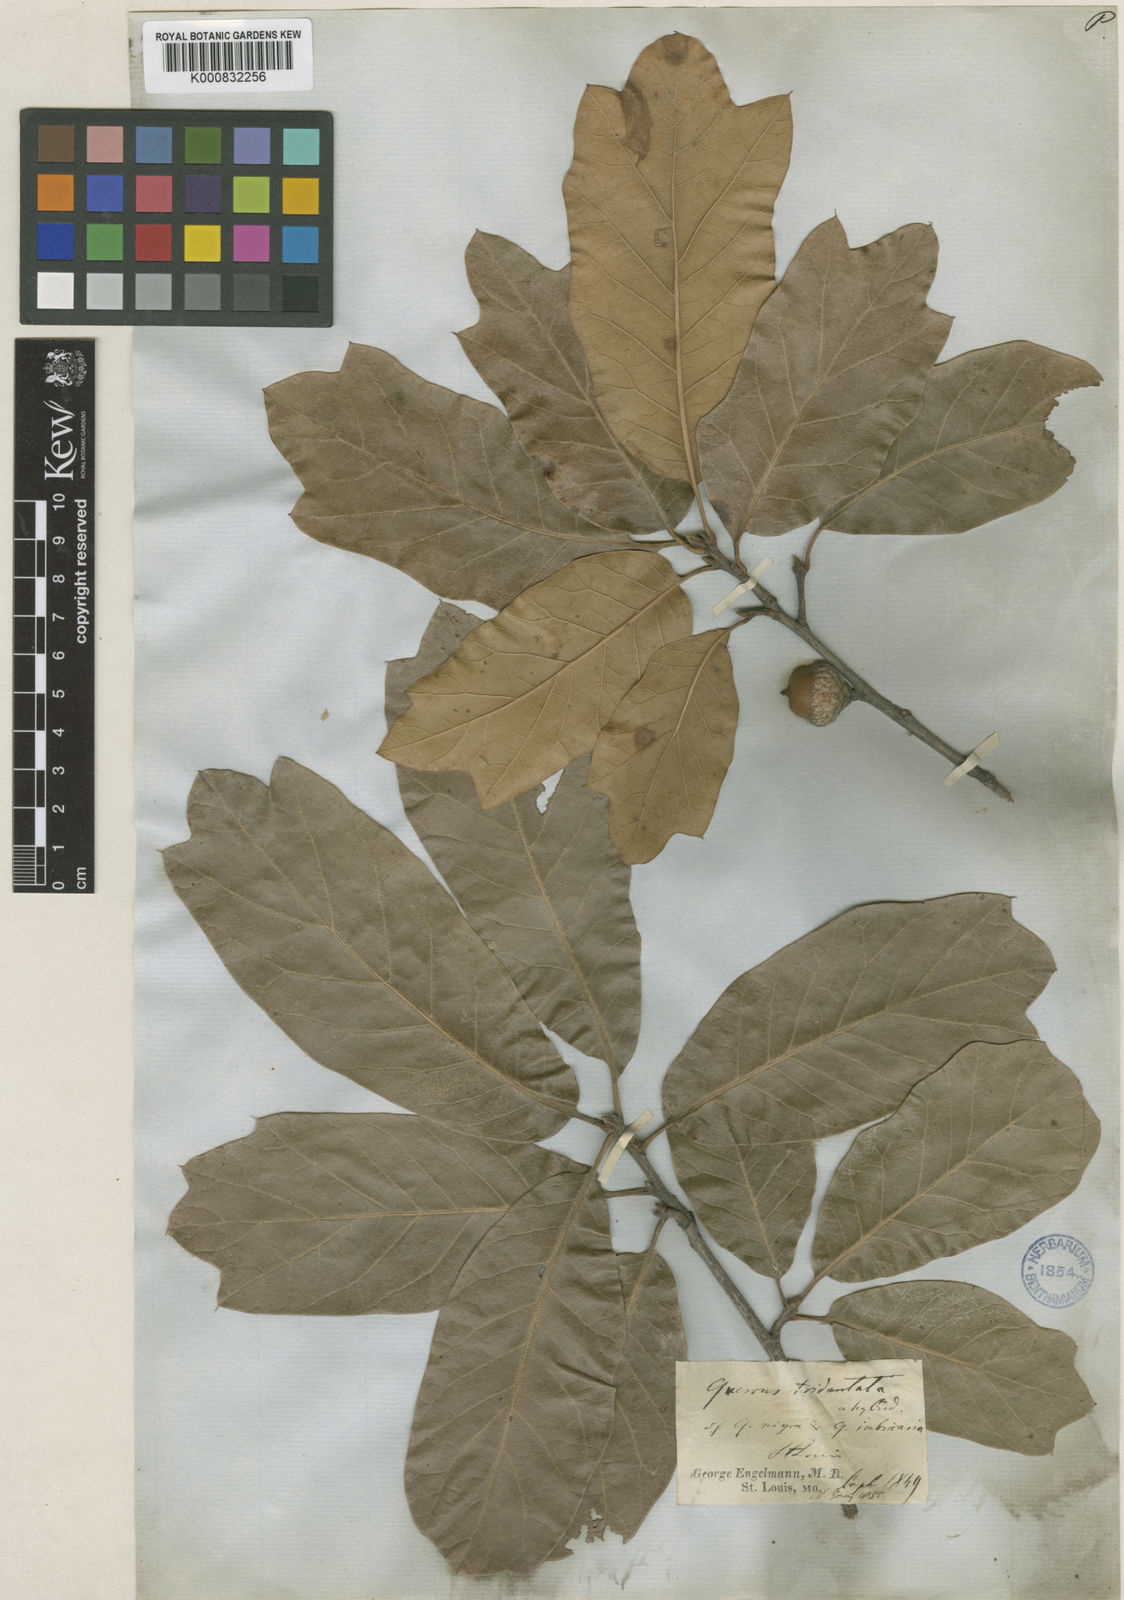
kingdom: Plantae
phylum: Tracheophyta
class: Magnoliopsida
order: Fagales
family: Fagaceae
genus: Quercus
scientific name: Quercus imbricaria
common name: Shingle oak
